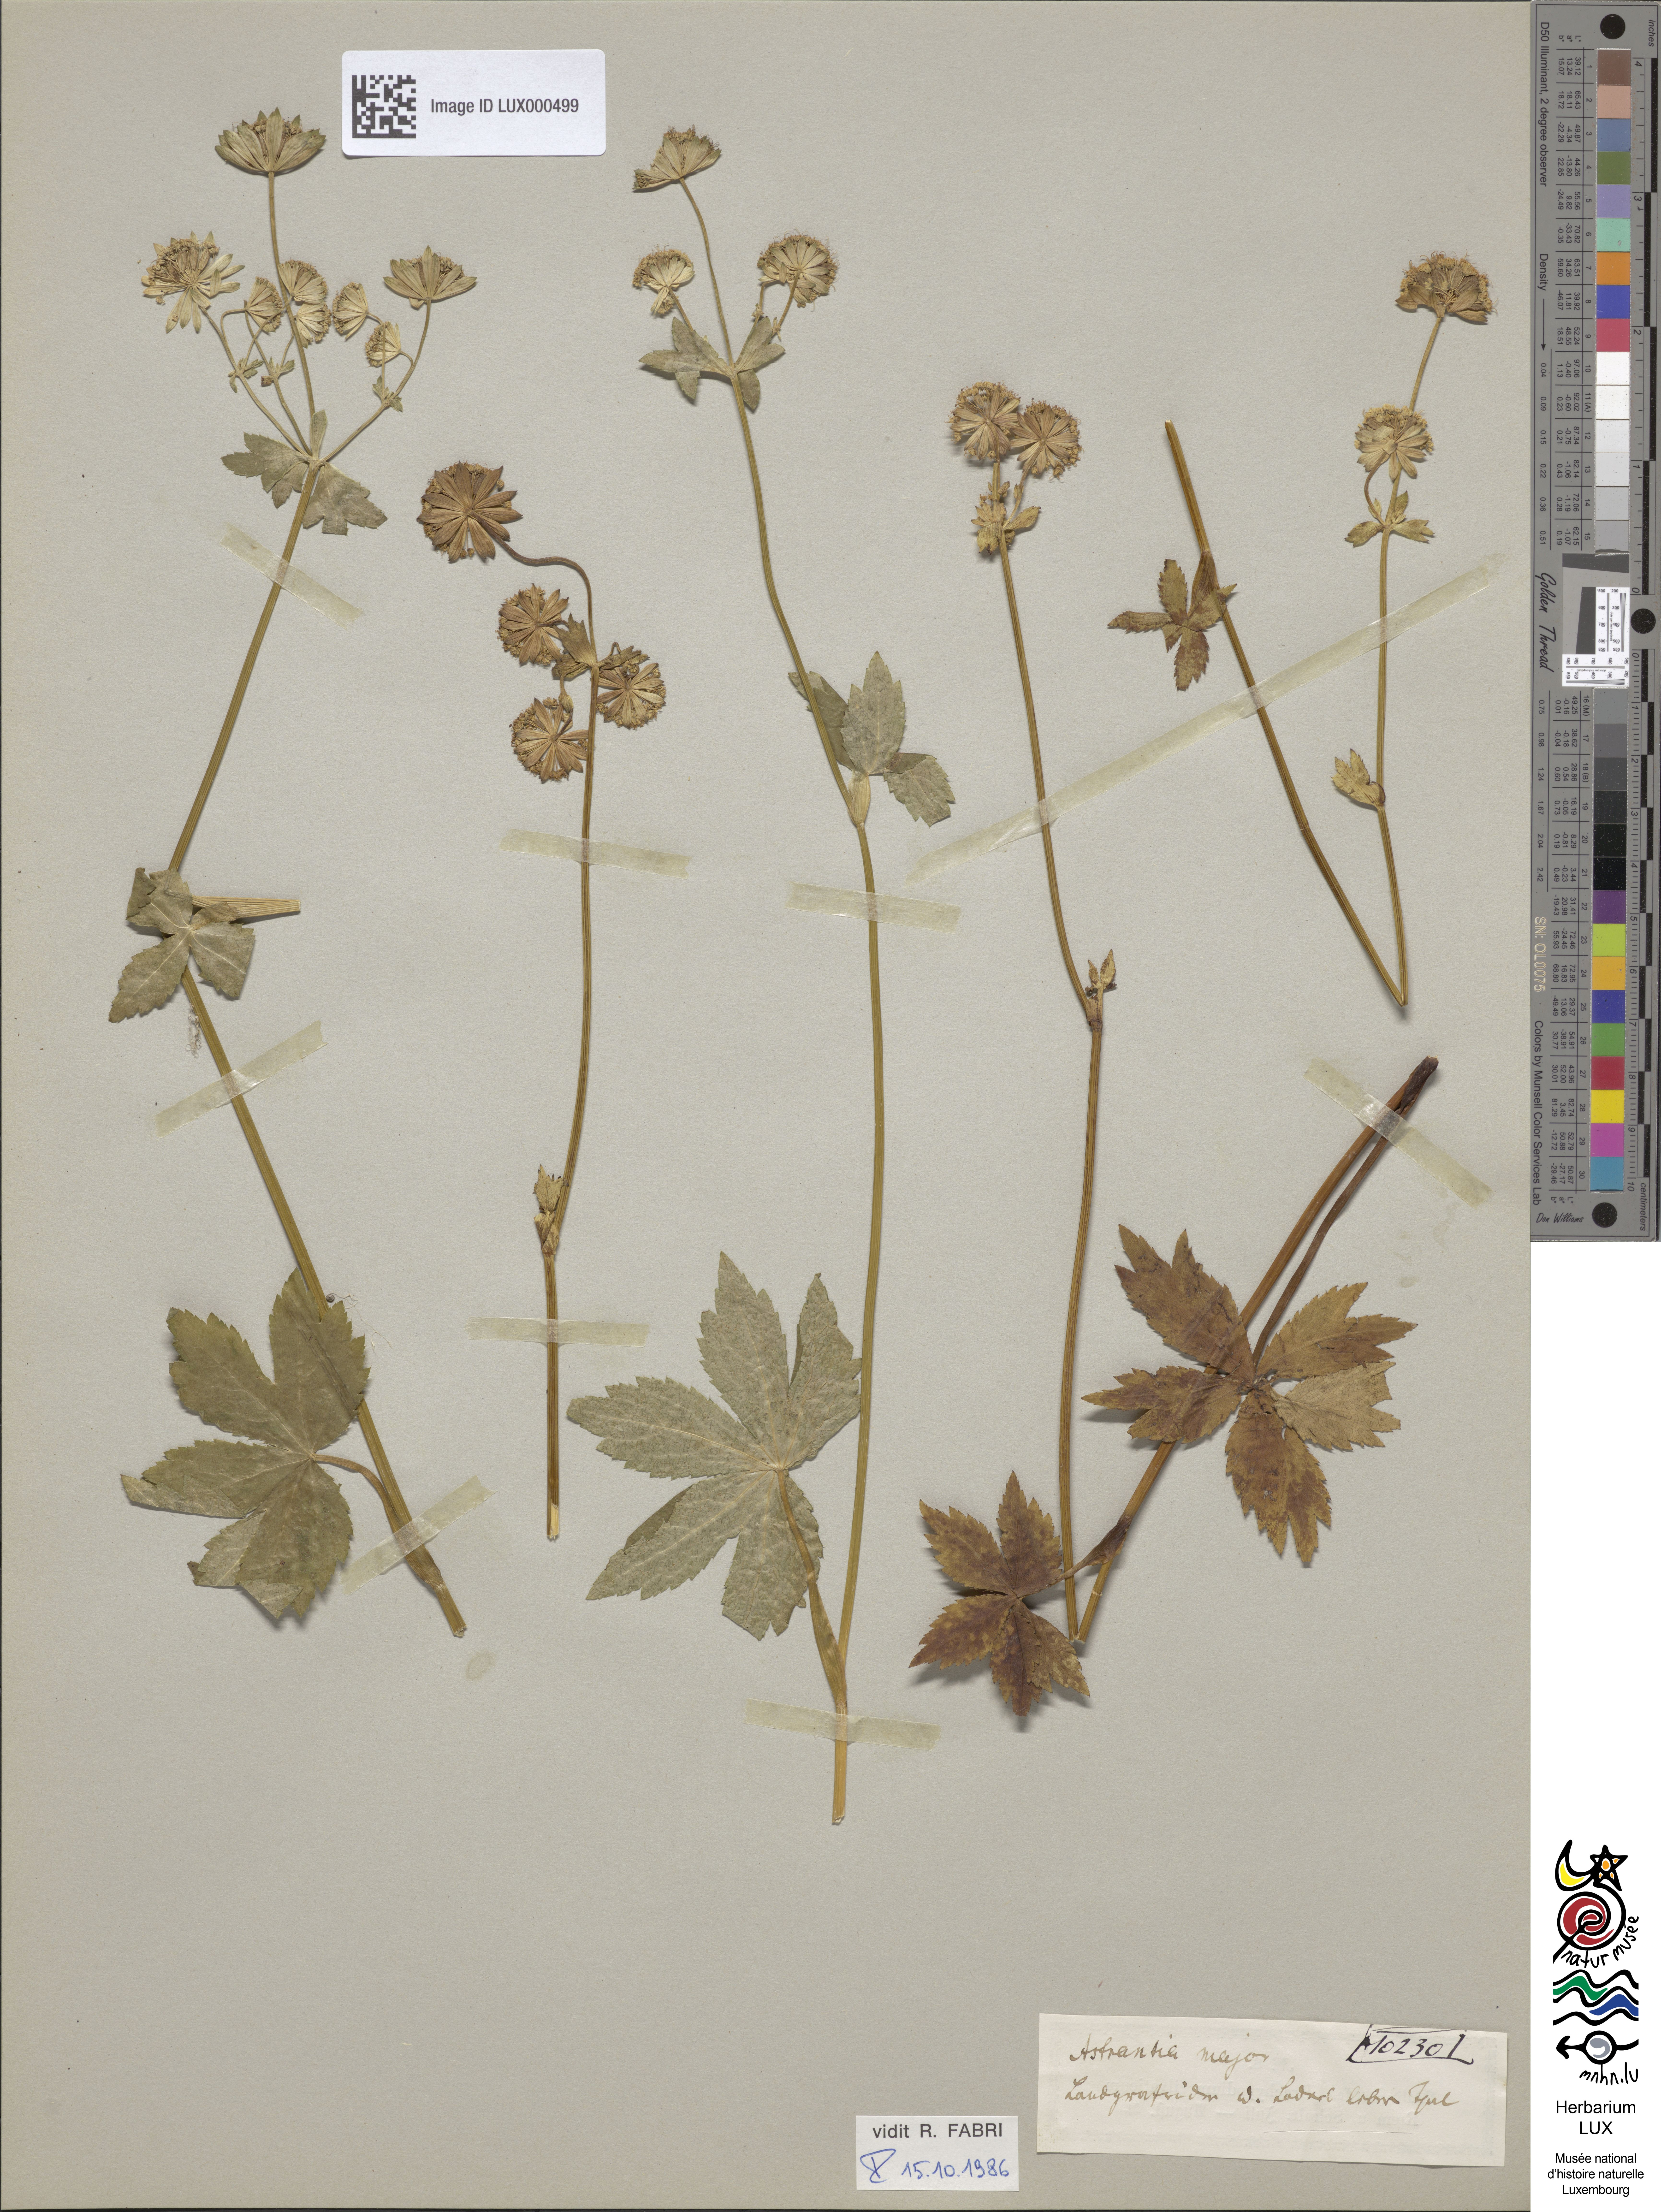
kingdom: Plantae
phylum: Tracheophyta
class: Magnoliopsida
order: Apiales
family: Apiaceae
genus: Astrantia
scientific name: Astrantia major
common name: Greater masterwort
